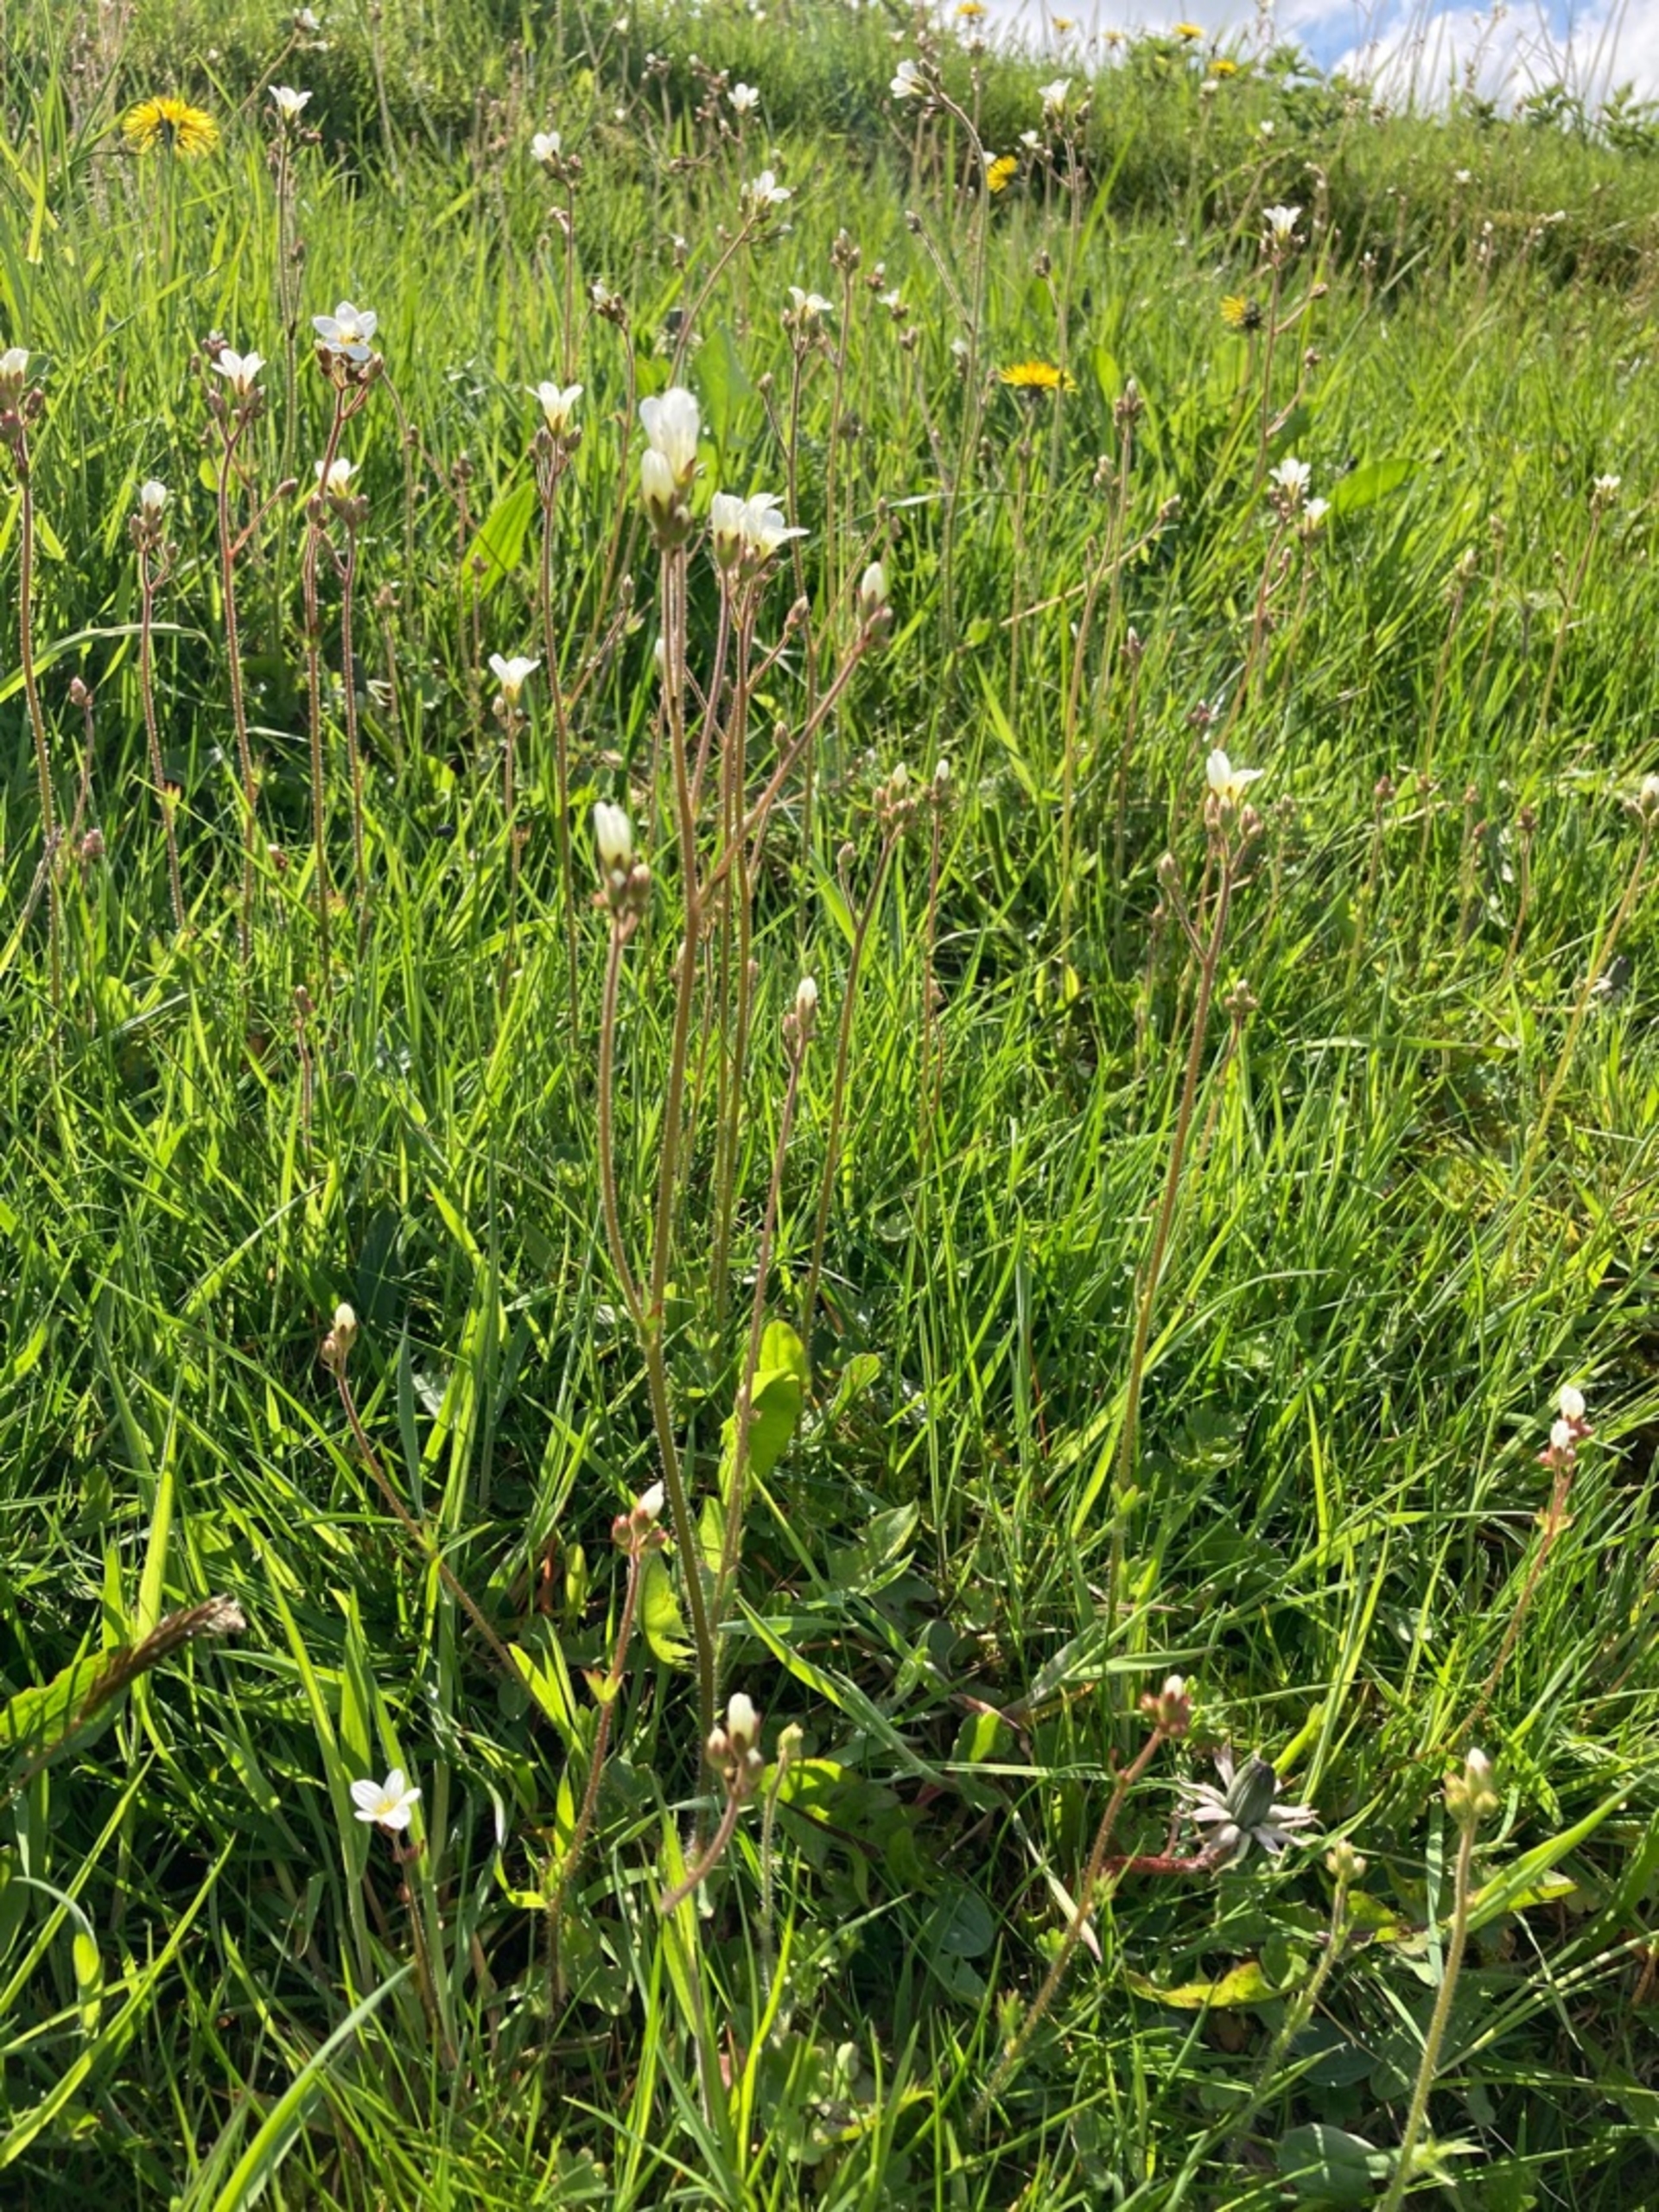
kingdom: Plantae
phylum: Tracheophyta
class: Magnoliopsida
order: Saxifragales
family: Saxifragaceae
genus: Saxifraga
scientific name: Saxifraga granulata
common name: Kornet stenbræk
